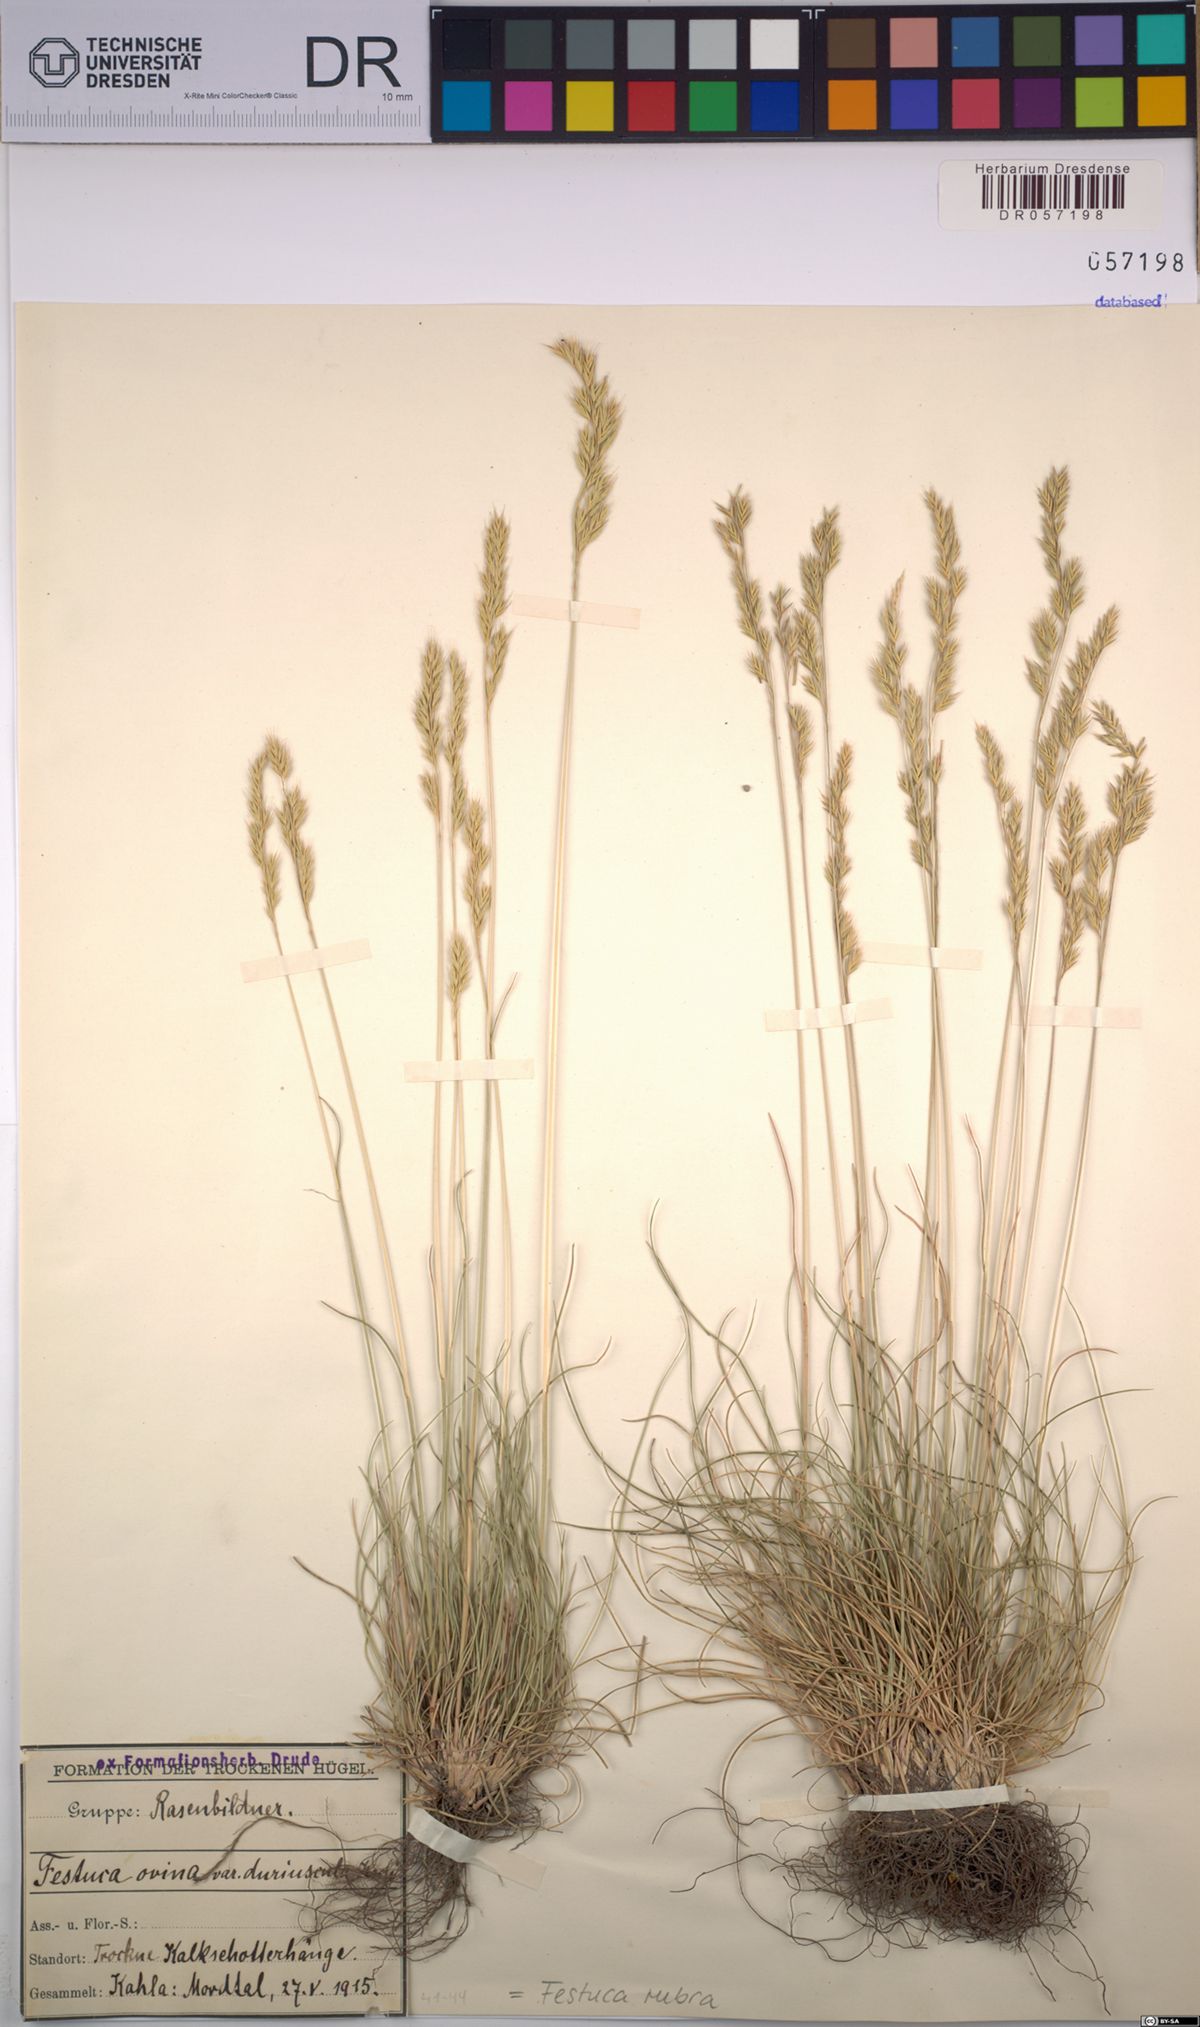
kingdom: Plantae
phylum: Tracheophyta
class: Liliopsida
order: Poales
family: Poaceae
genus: Festuca
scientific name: Festuca rubra
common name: Red fescue
